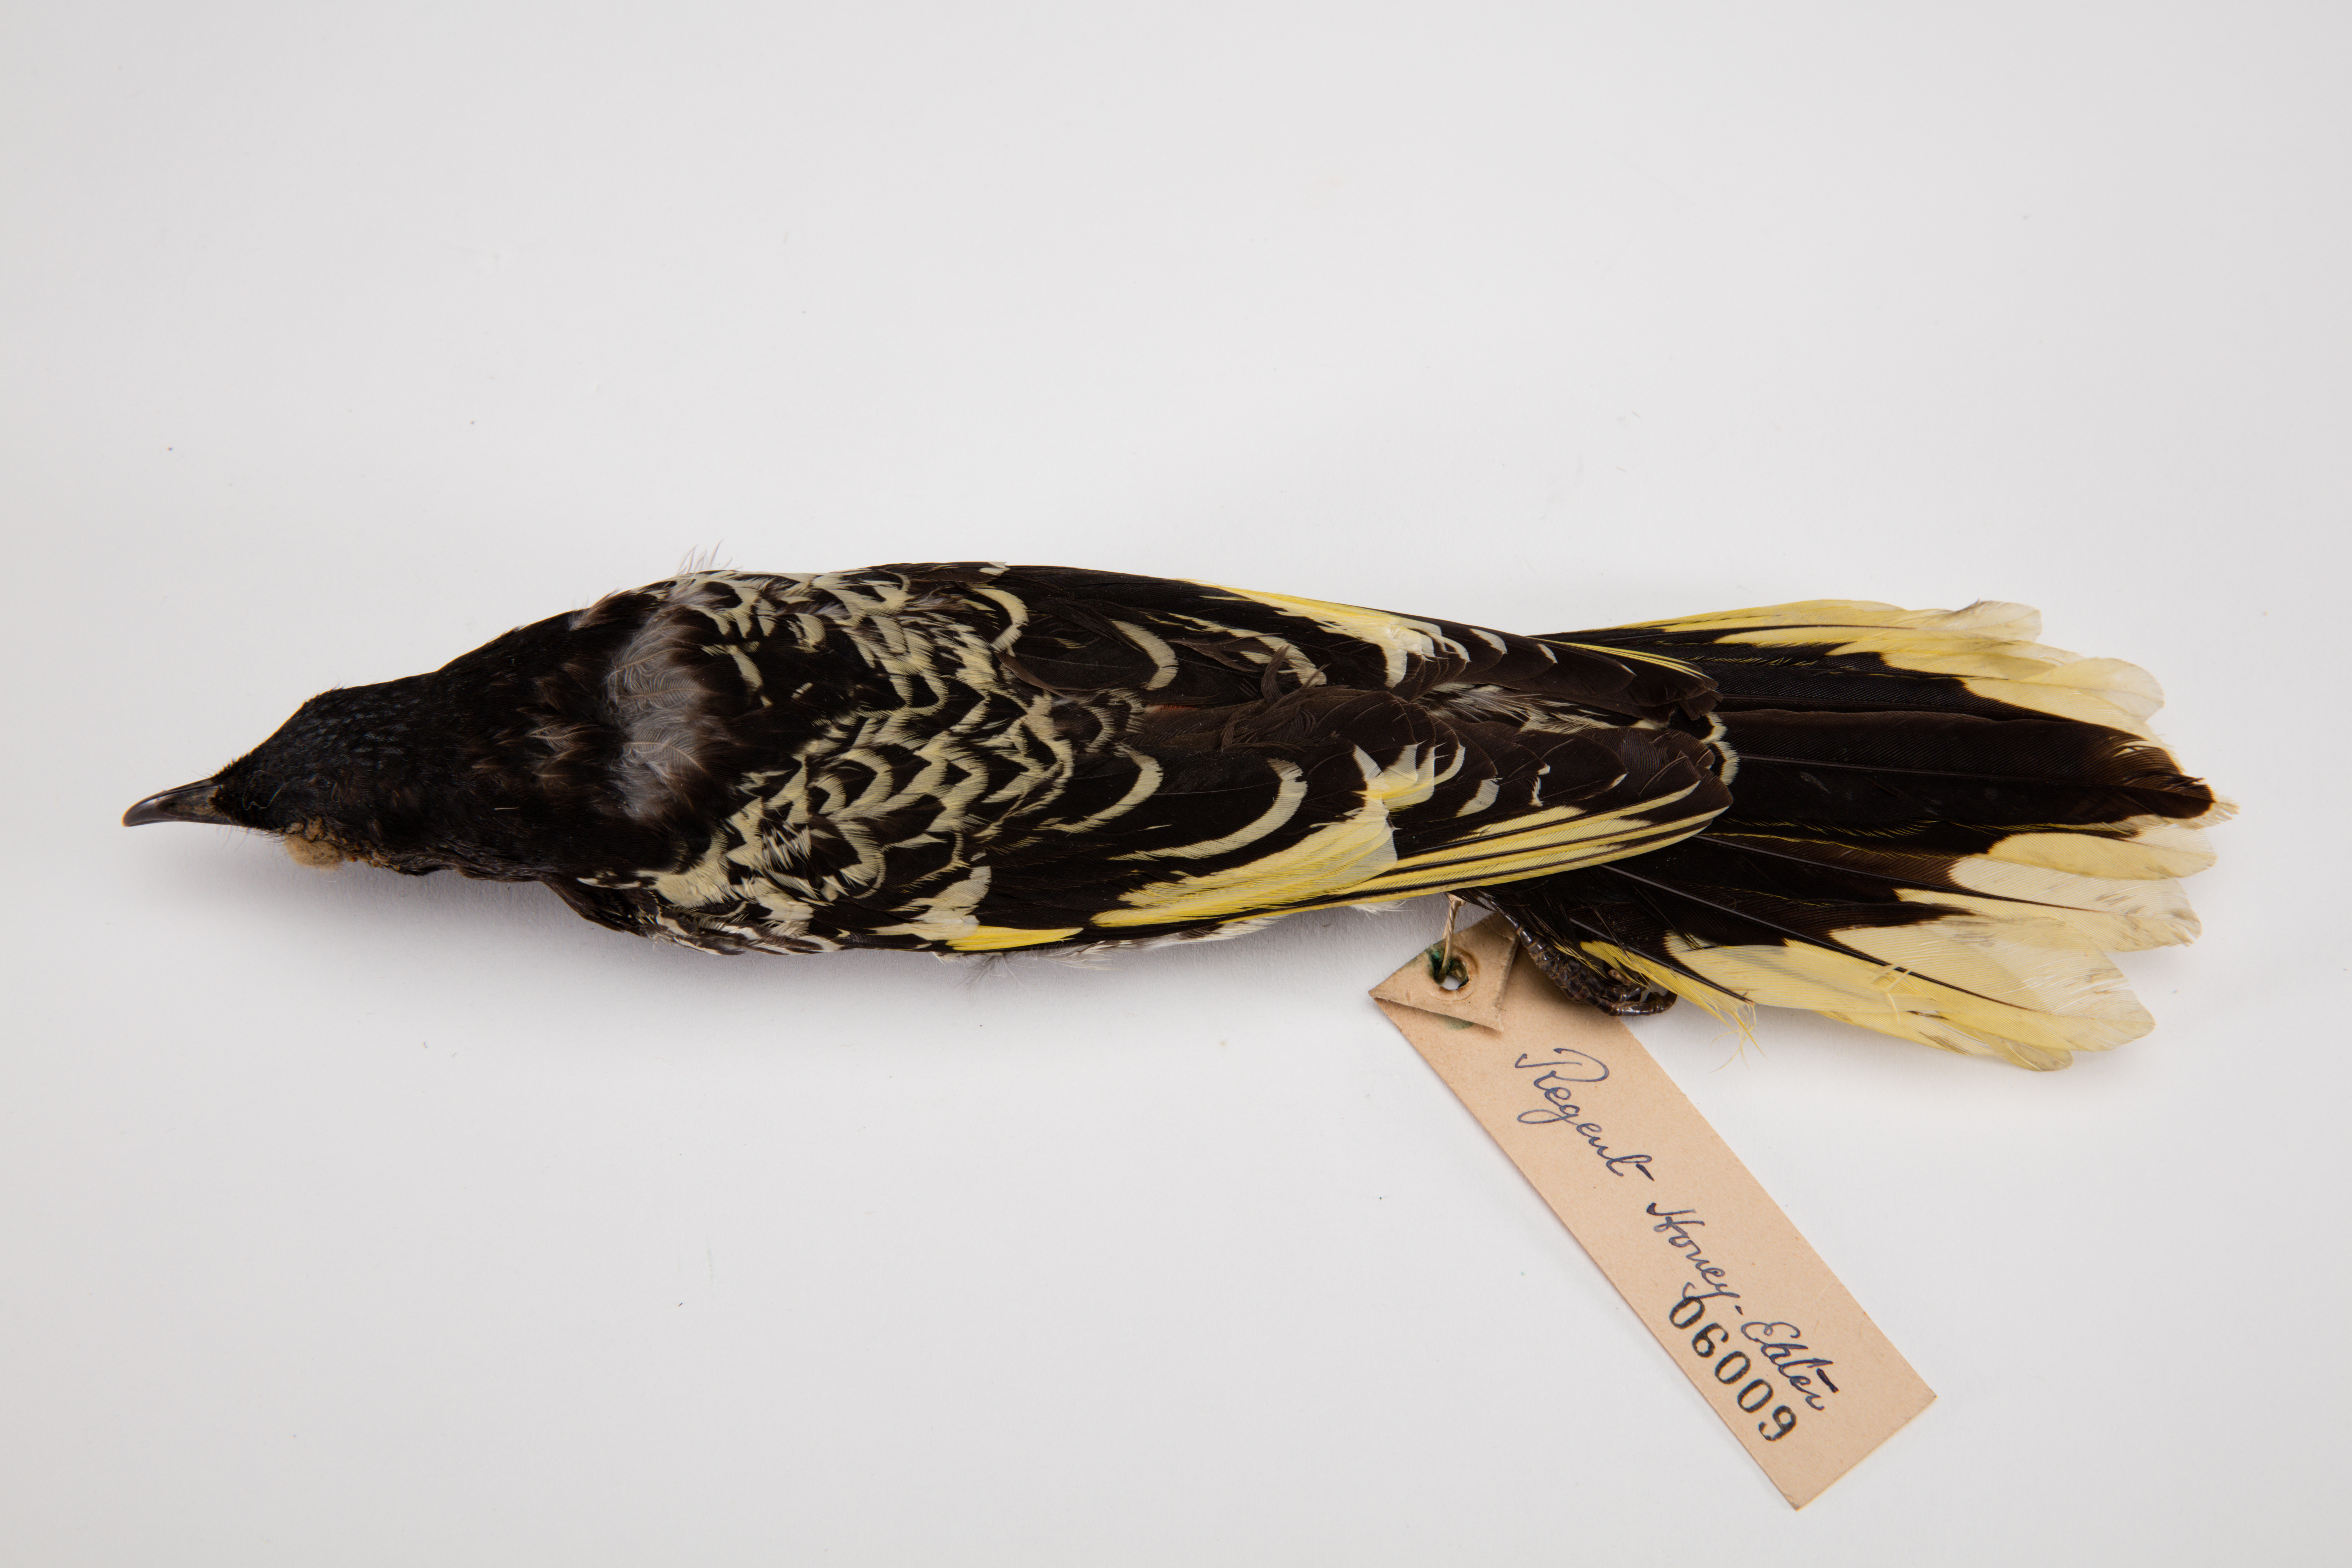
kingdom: Animalia
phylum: Chordata
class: Aves
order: Passeriformes
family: Meliphagidae
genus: Anthochaera
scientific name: Anthochaera phrygia
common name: Regent honeyeater
